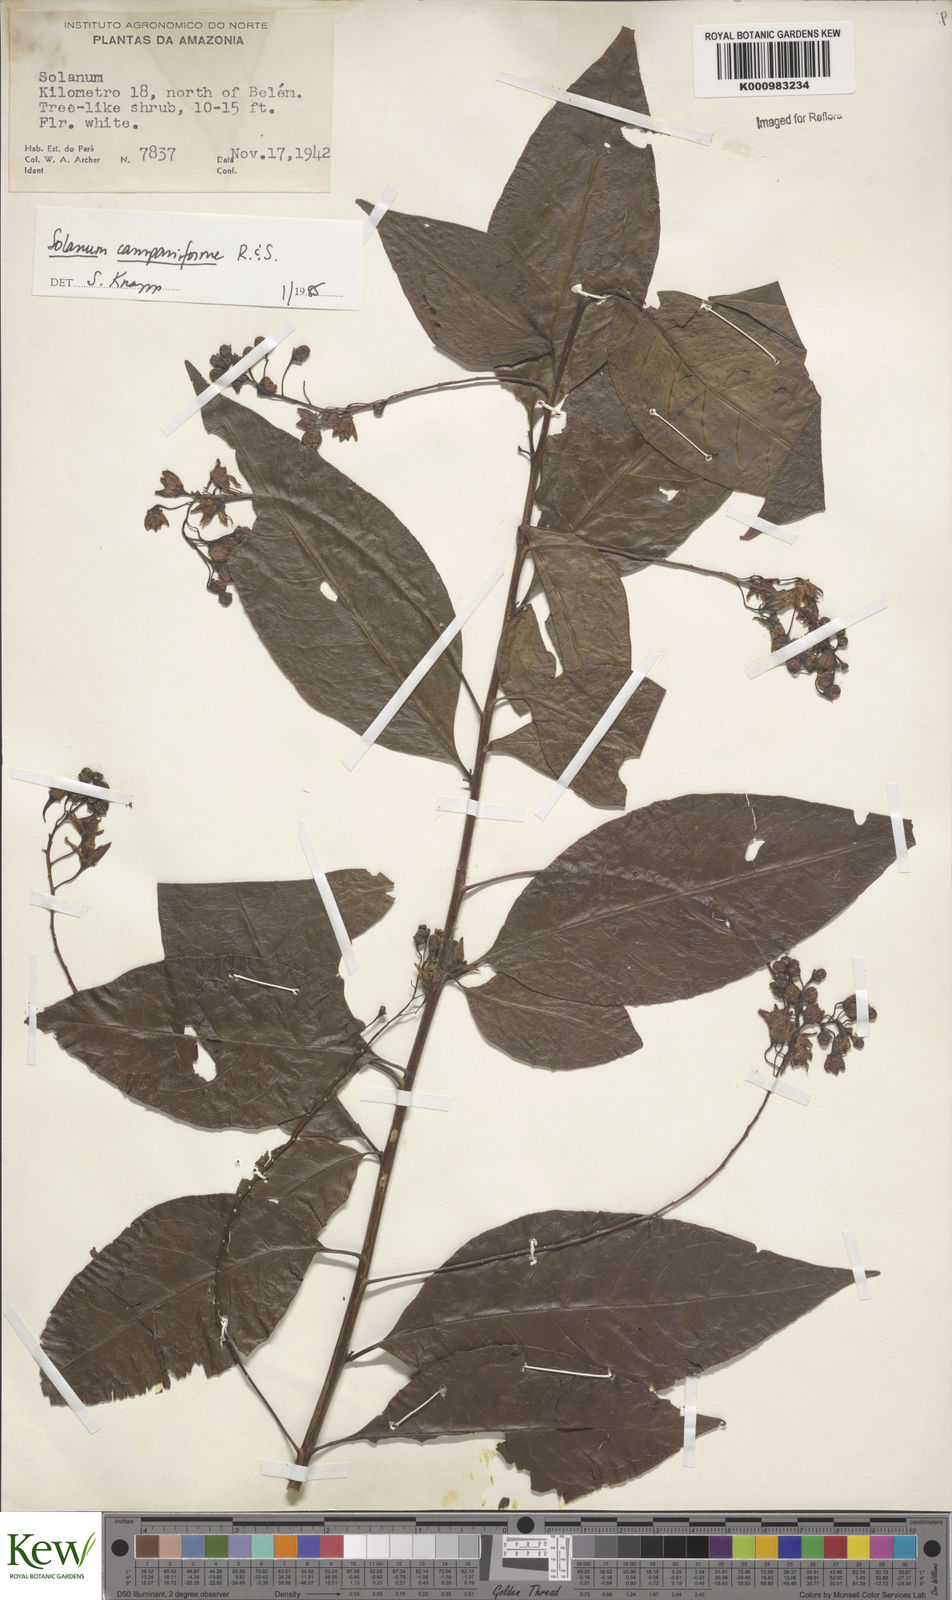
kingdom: Plantae
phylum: Tracheophyta
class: Magnoliopsida
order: Solanales
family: Solanaceae
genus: Solanum
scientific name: Solanum campaniforme
